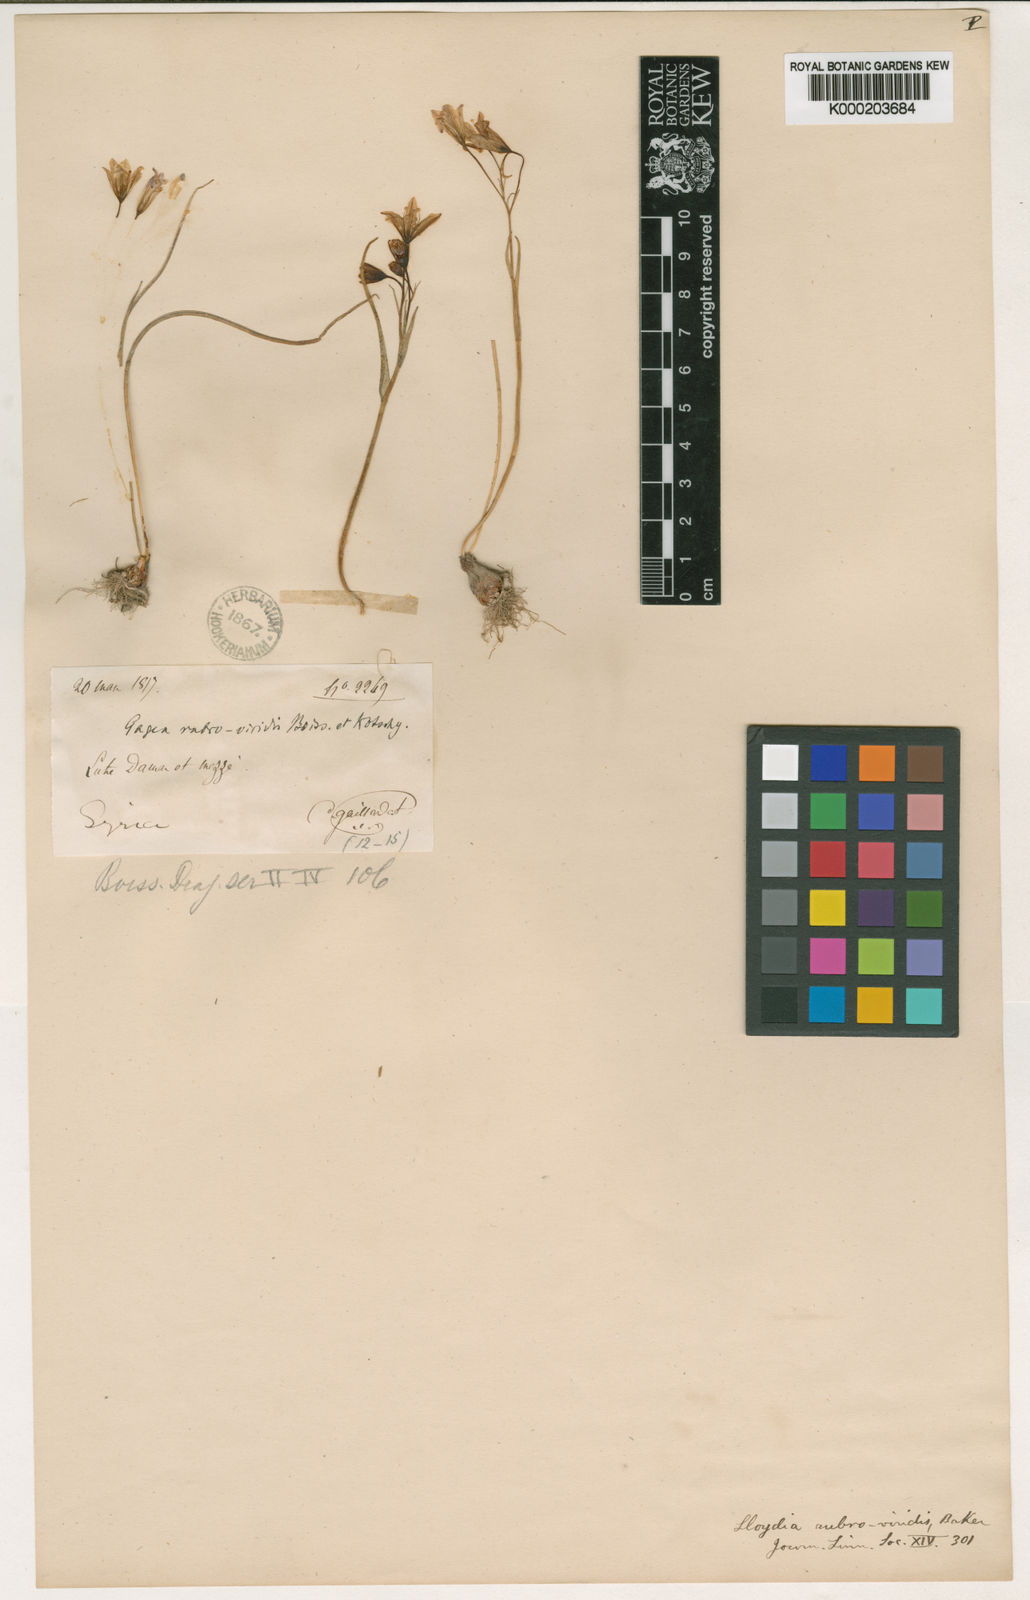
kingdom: Plantae
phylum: Tracheophyta
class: Liliopsida
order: Liliales
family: Liliaceae
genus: Gagea
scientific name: Gagea libanotica
